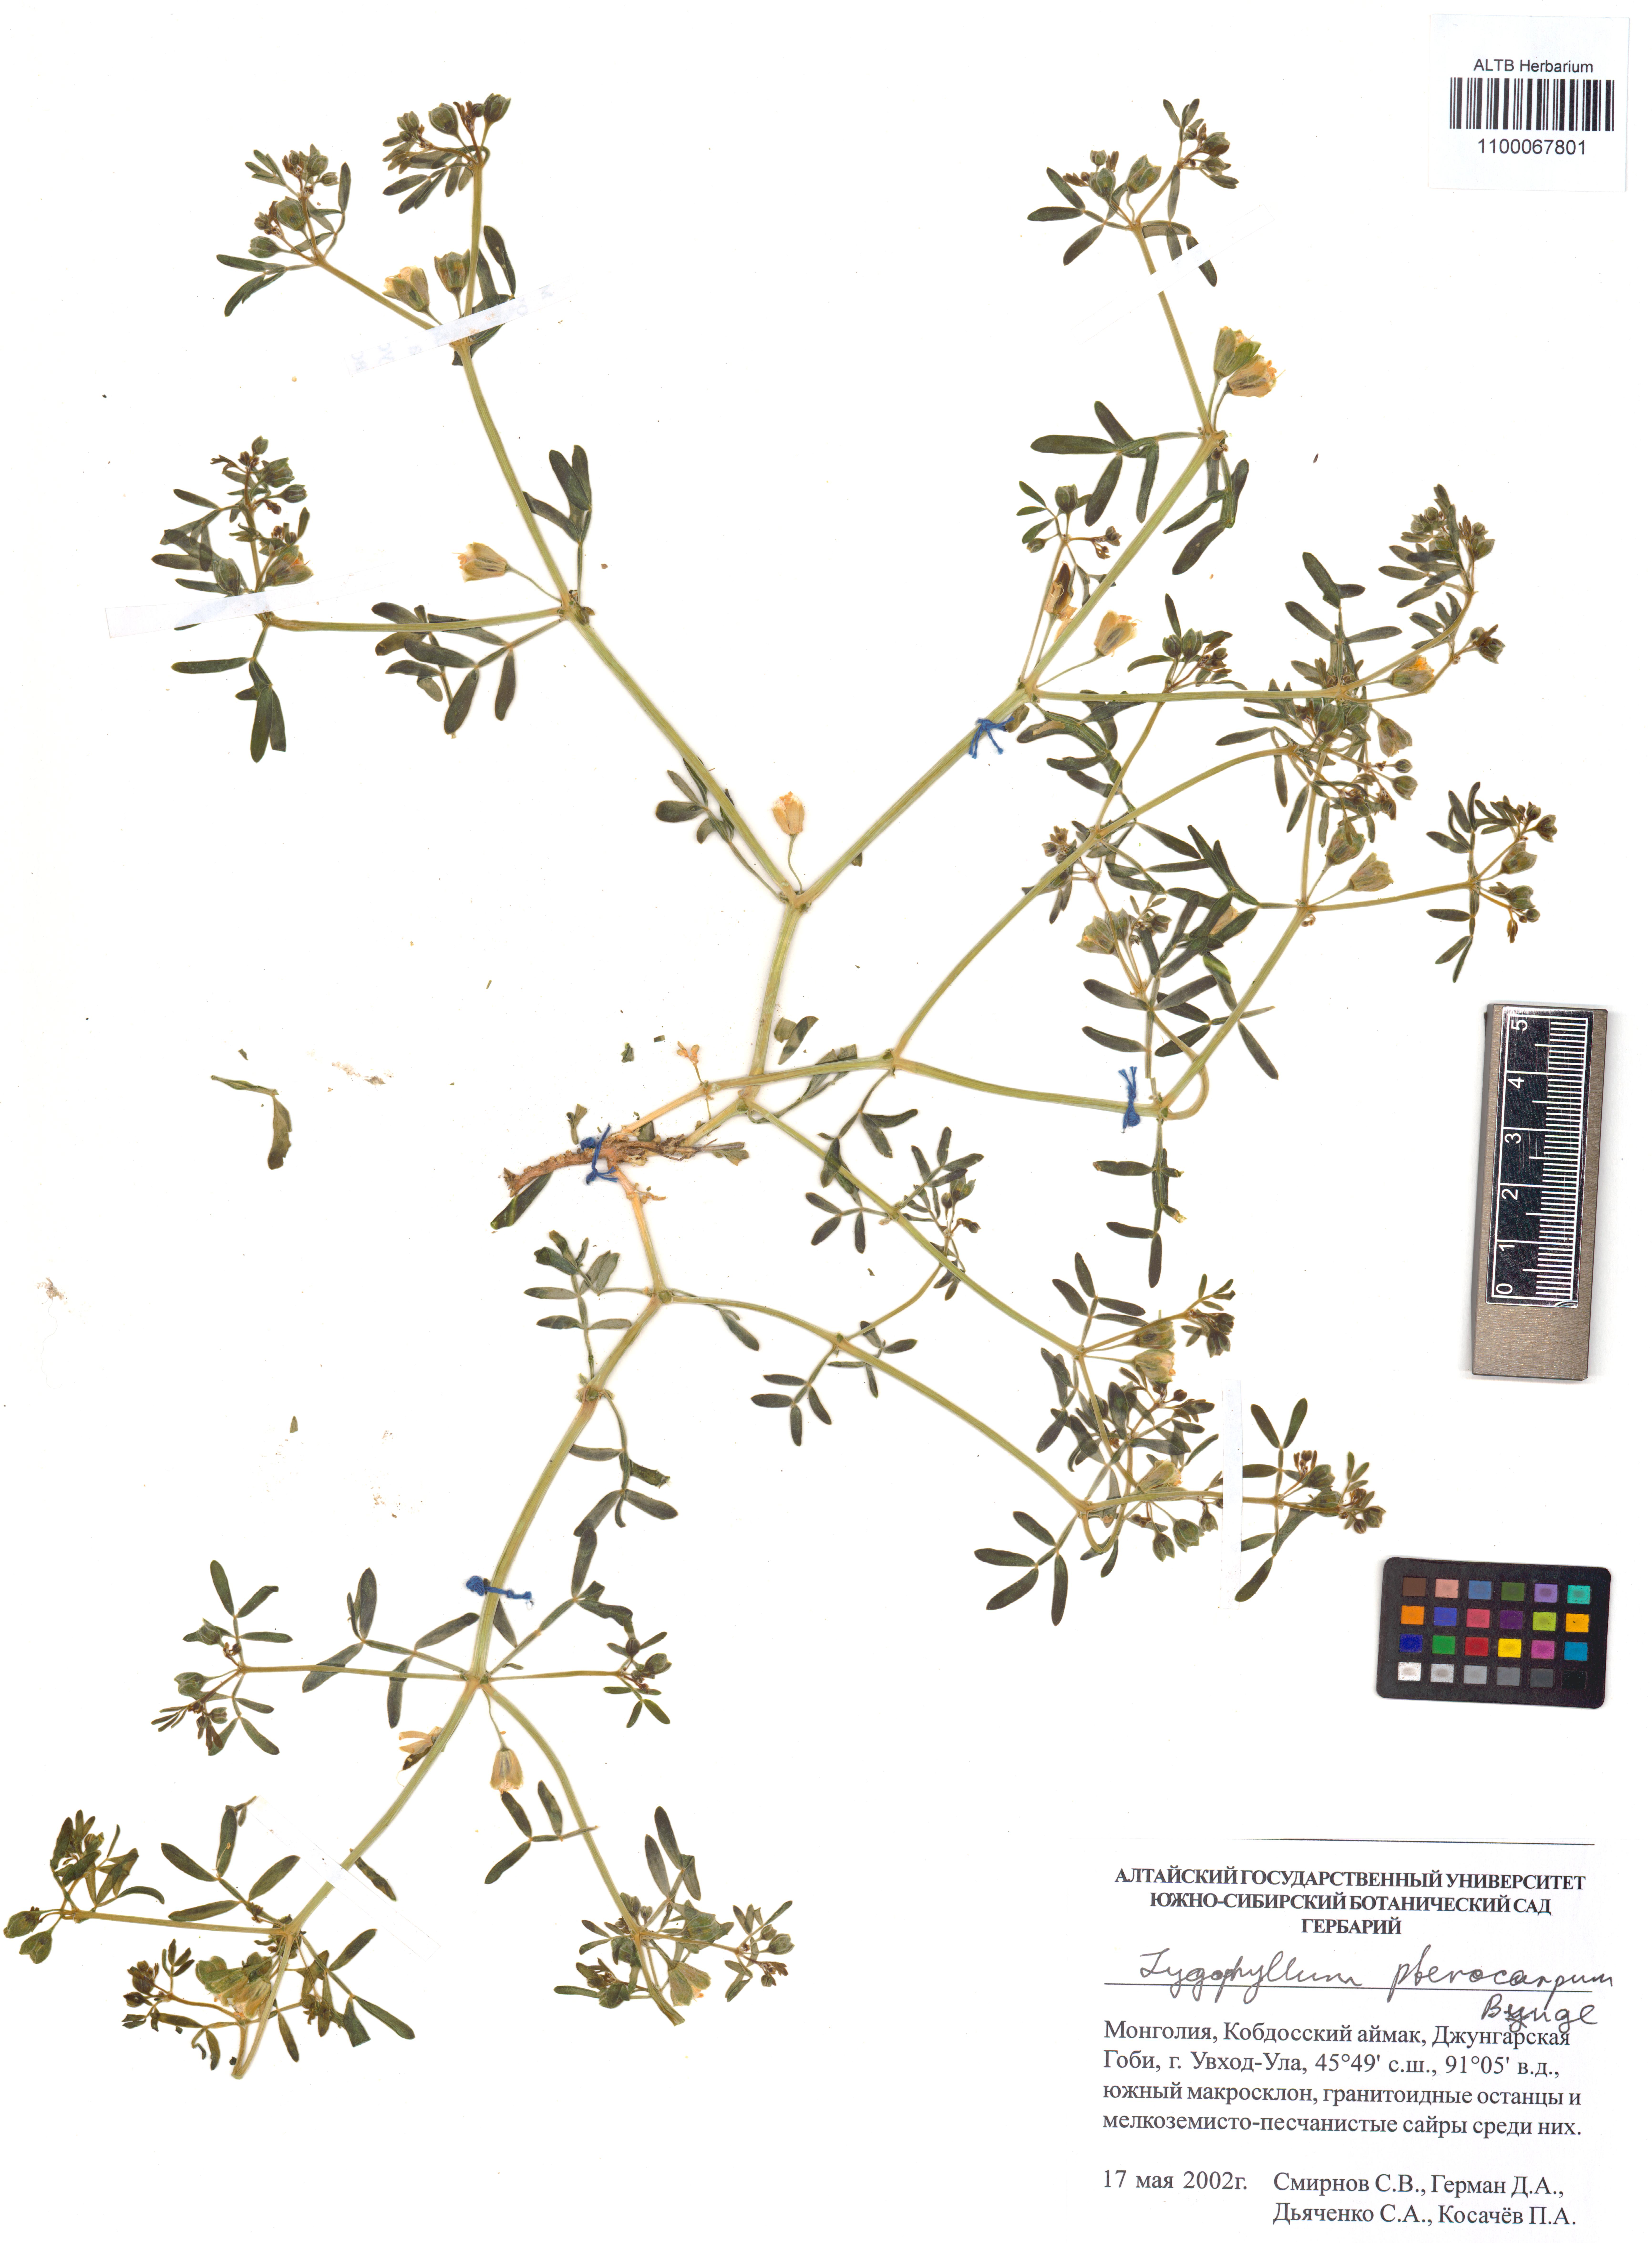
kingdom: Plantae
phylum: Tracheophyta
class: Magnoliopsida
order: Zygophyllales
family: Zygophyllaceae
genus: Zygophyllum
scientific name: Zygophyllum pterocarpum
